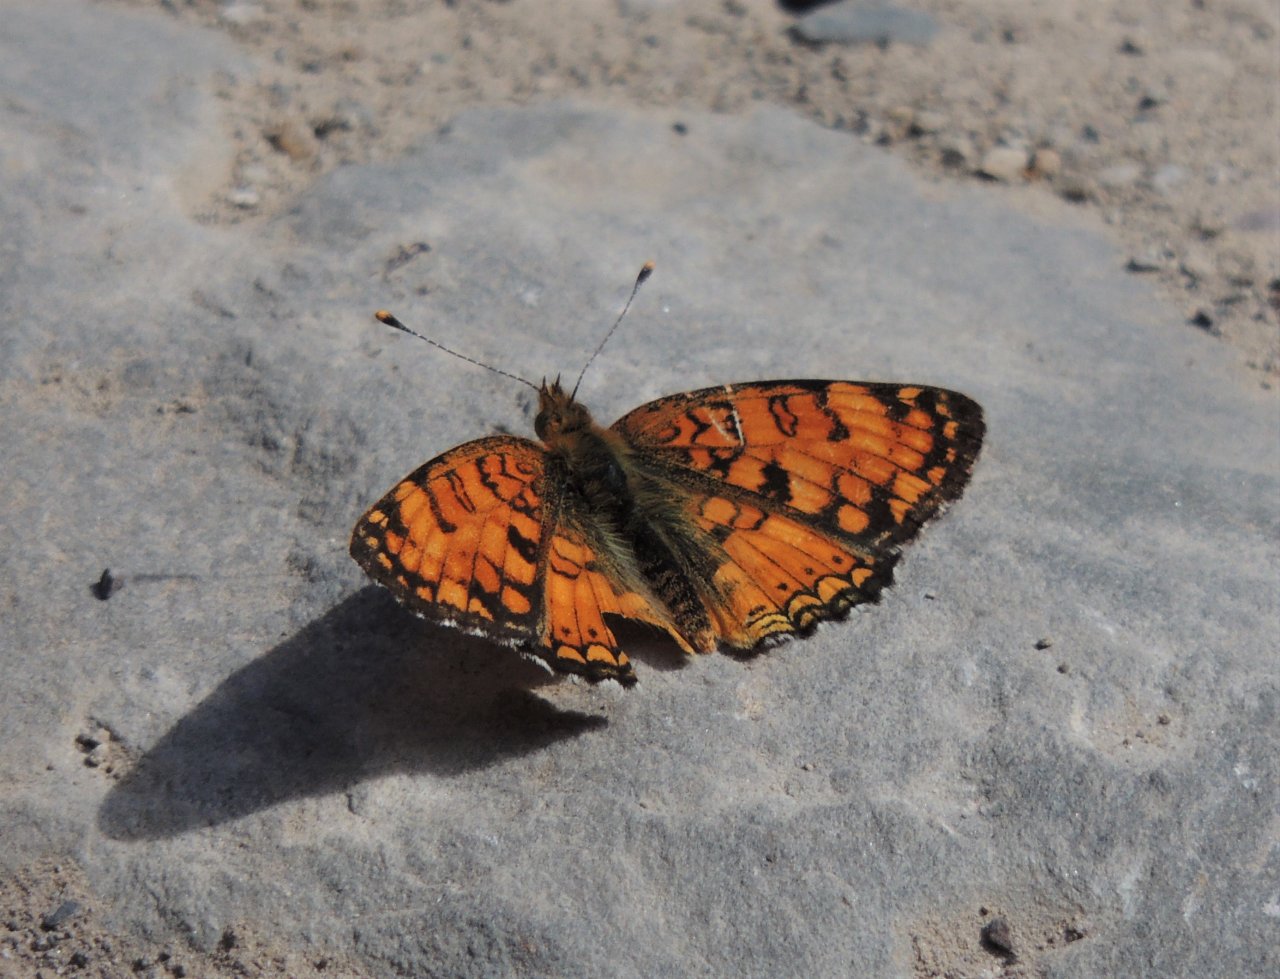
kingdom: Animalia
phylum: Arthropoda
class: Insecta
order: Lepidoptera
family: Nymphalidae
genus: Phyciodes
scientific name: Phyciodes pallida
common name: Pale Crescent
